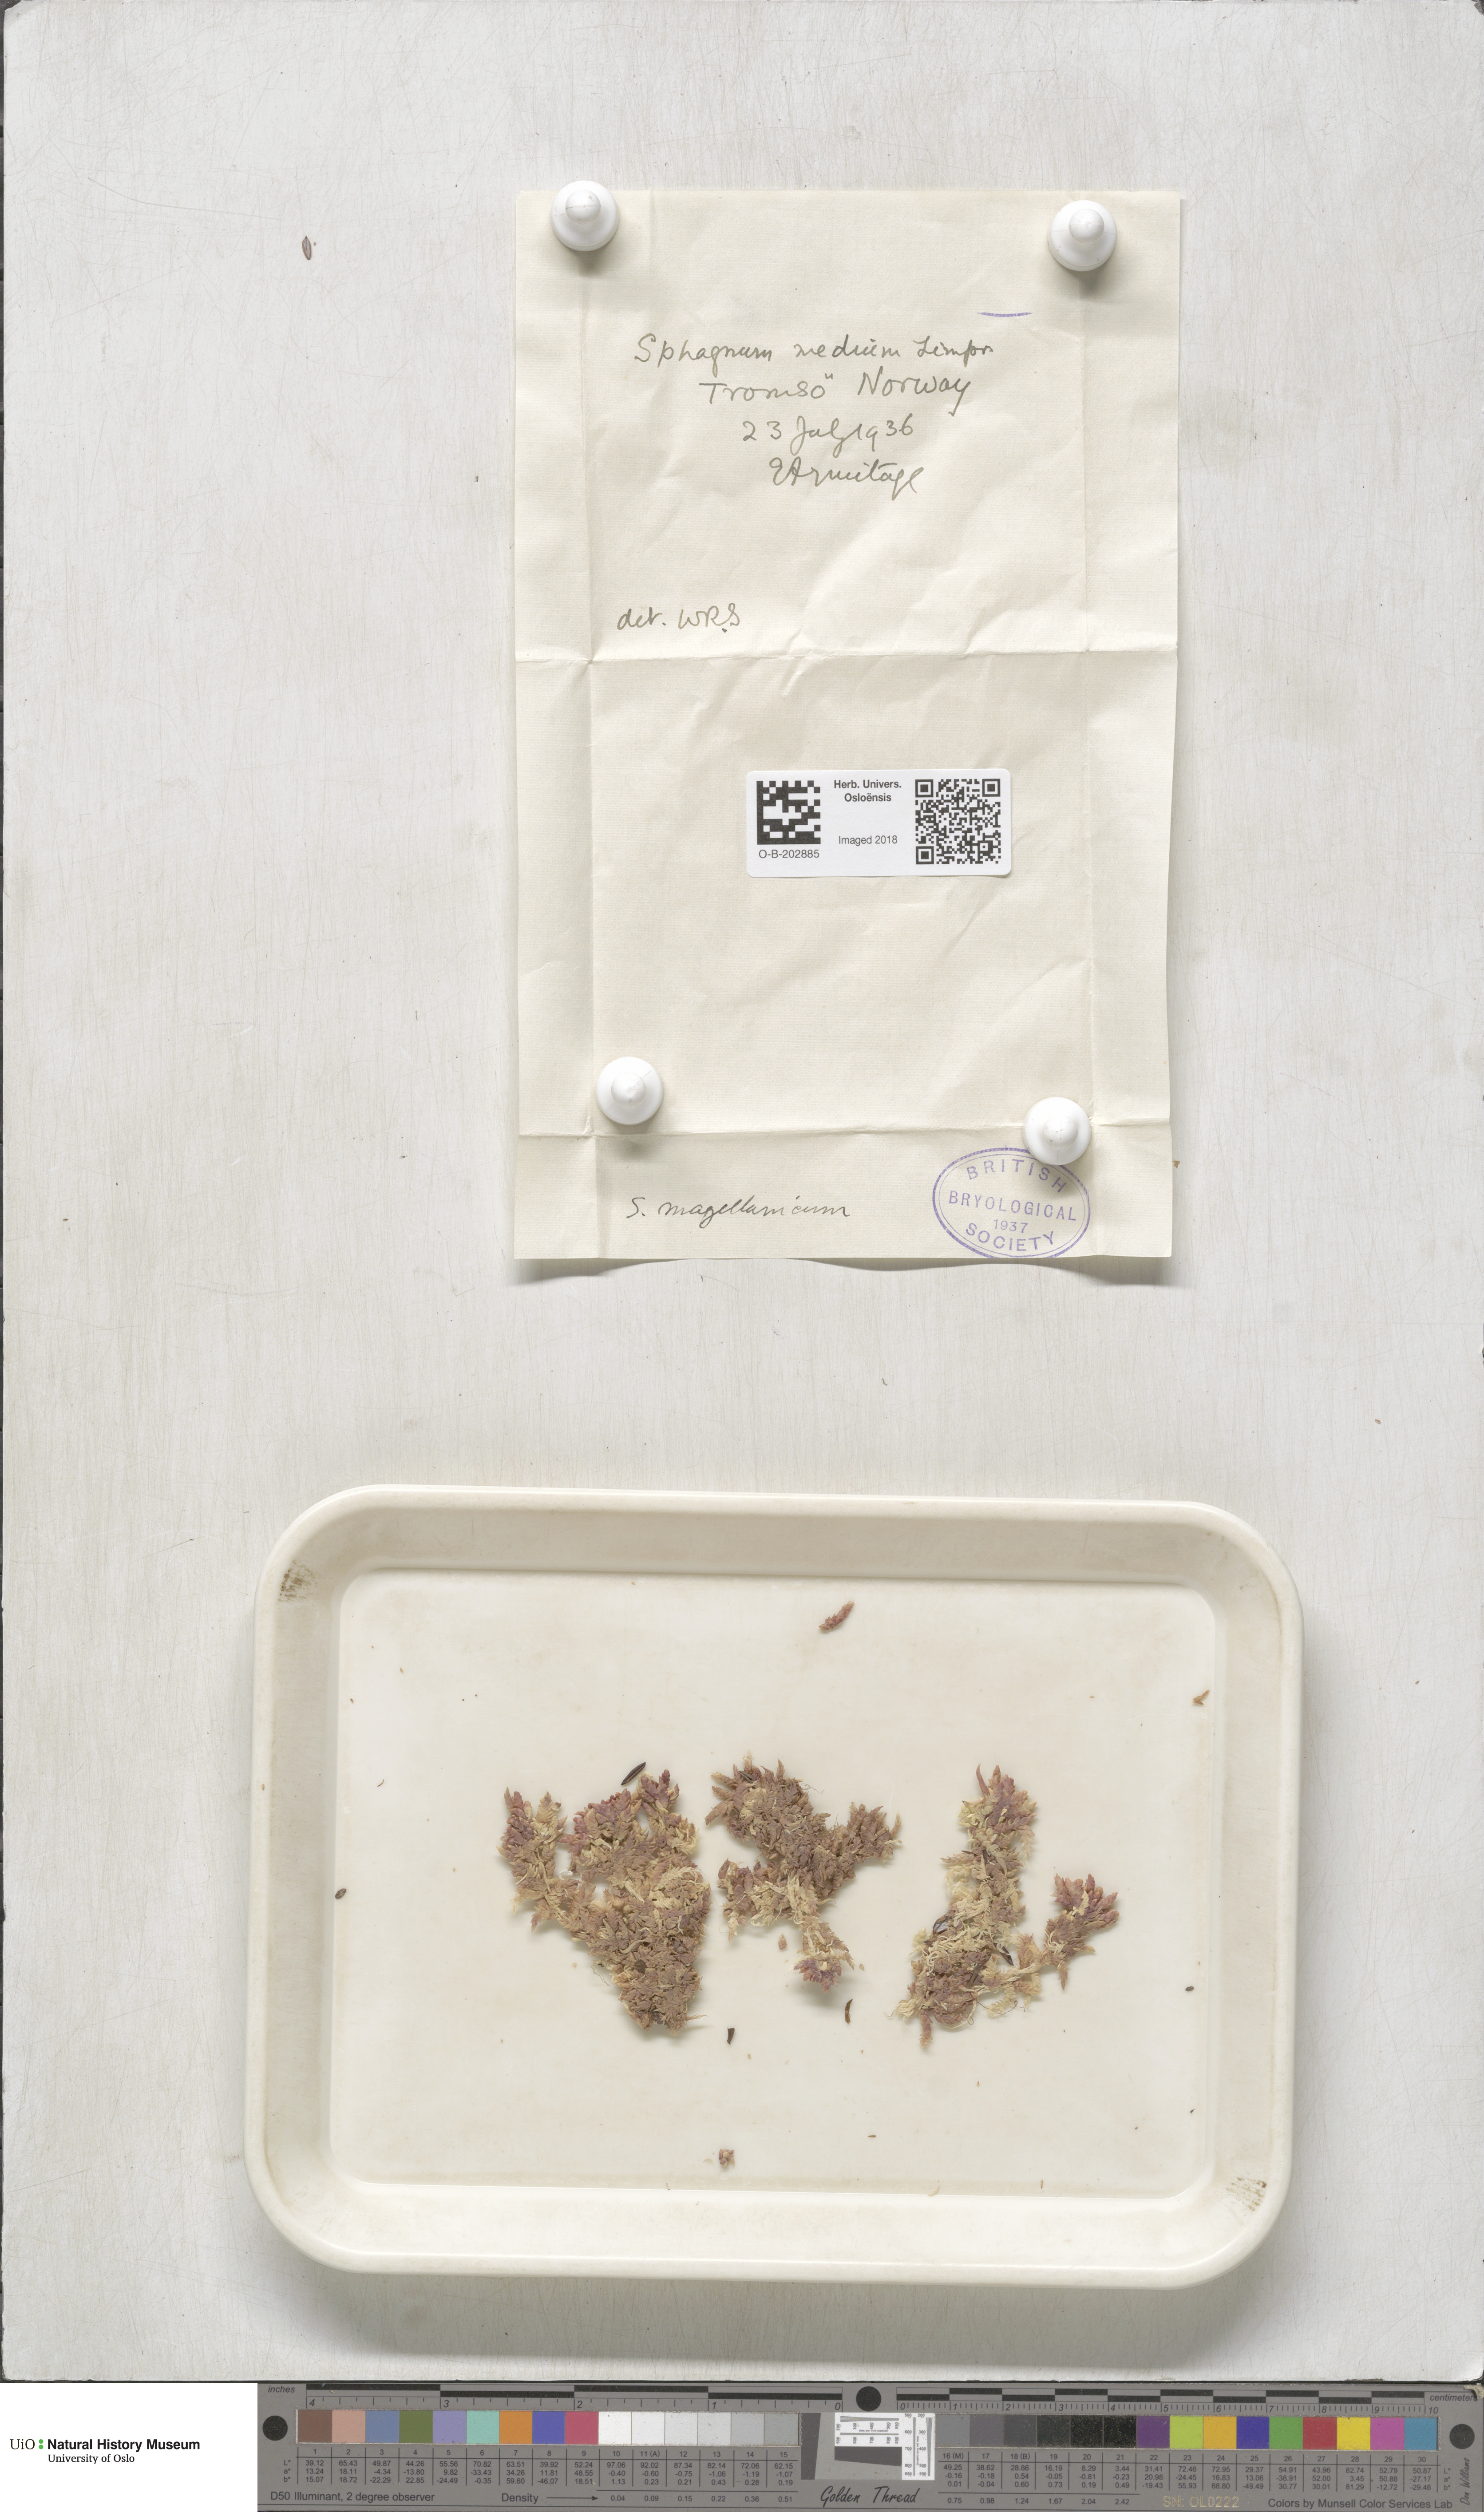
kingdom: Plantae
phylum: Bryophyta
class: Sphagnopsida
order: Sphagnales
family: Sphagnaceae
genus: Sphagnum
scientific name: Sphagnum magellanicum
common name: Magellan's peat moss
